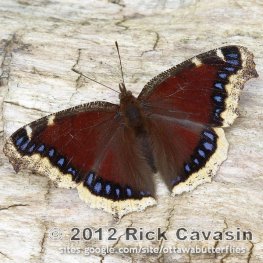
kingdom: Animalia
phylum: Arthropoda
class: Insecta
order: Lepidoptera
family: Nymphalidae
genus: Nymphalis
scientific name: Nymphalis antiopa
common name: Mourning Cloak
